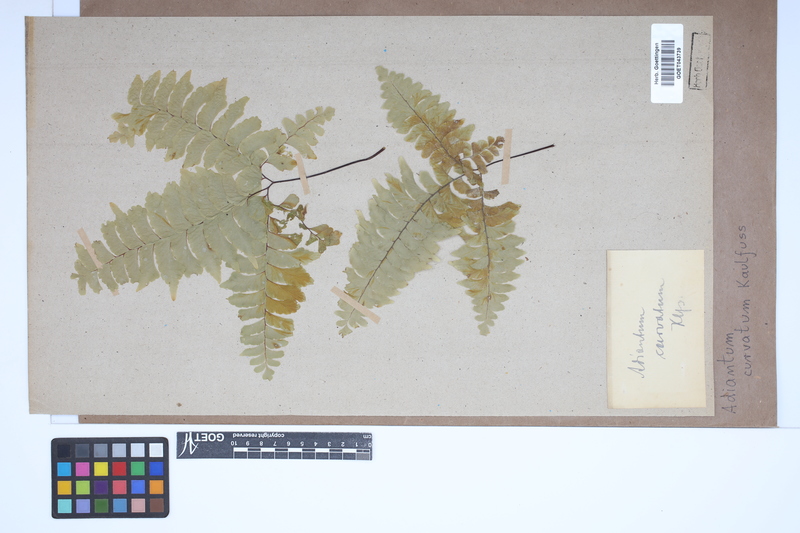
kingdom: Plantae
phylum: Tracheophyta
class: Polypodiopsida
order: Polypodiales
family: Pteridaceae
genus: Adiantum
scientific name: Adiantum curvatum
